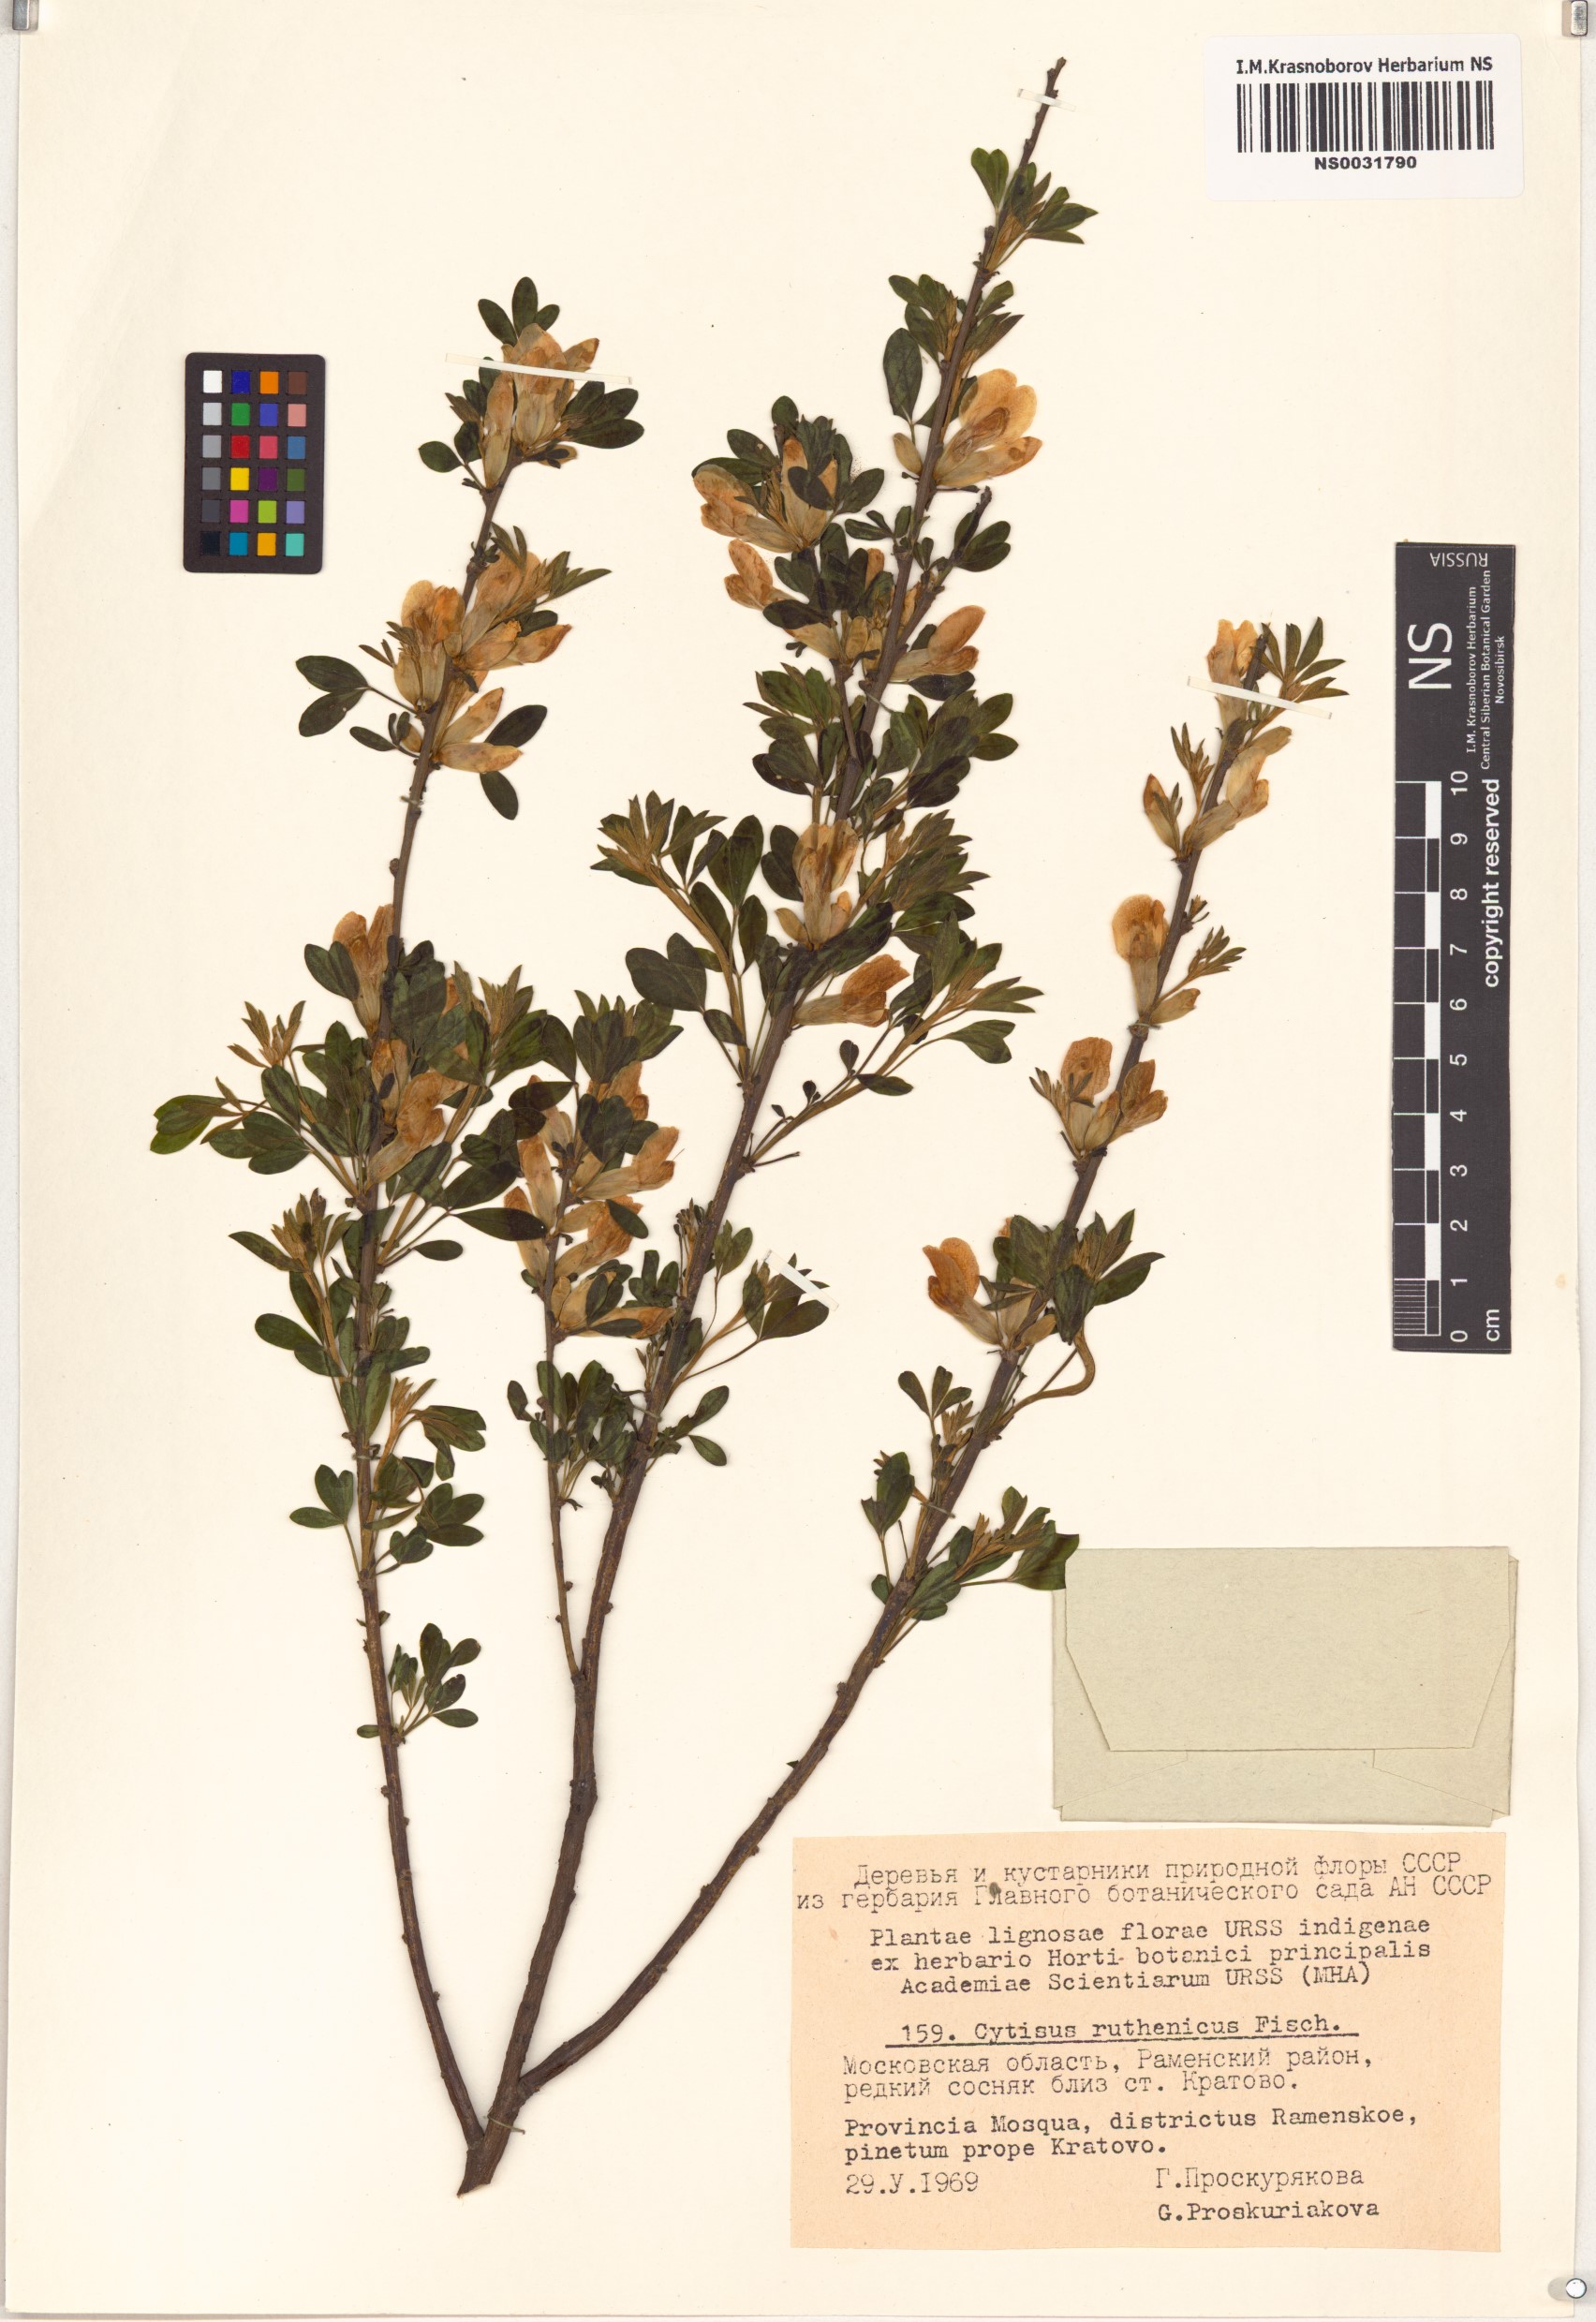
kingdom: Plantae
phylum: Tracheophyta
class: Magnoliopsida
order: Fabales
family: Fabaceae
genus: Chamaecytisus
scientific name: Chamaecytisus ruthenicus
